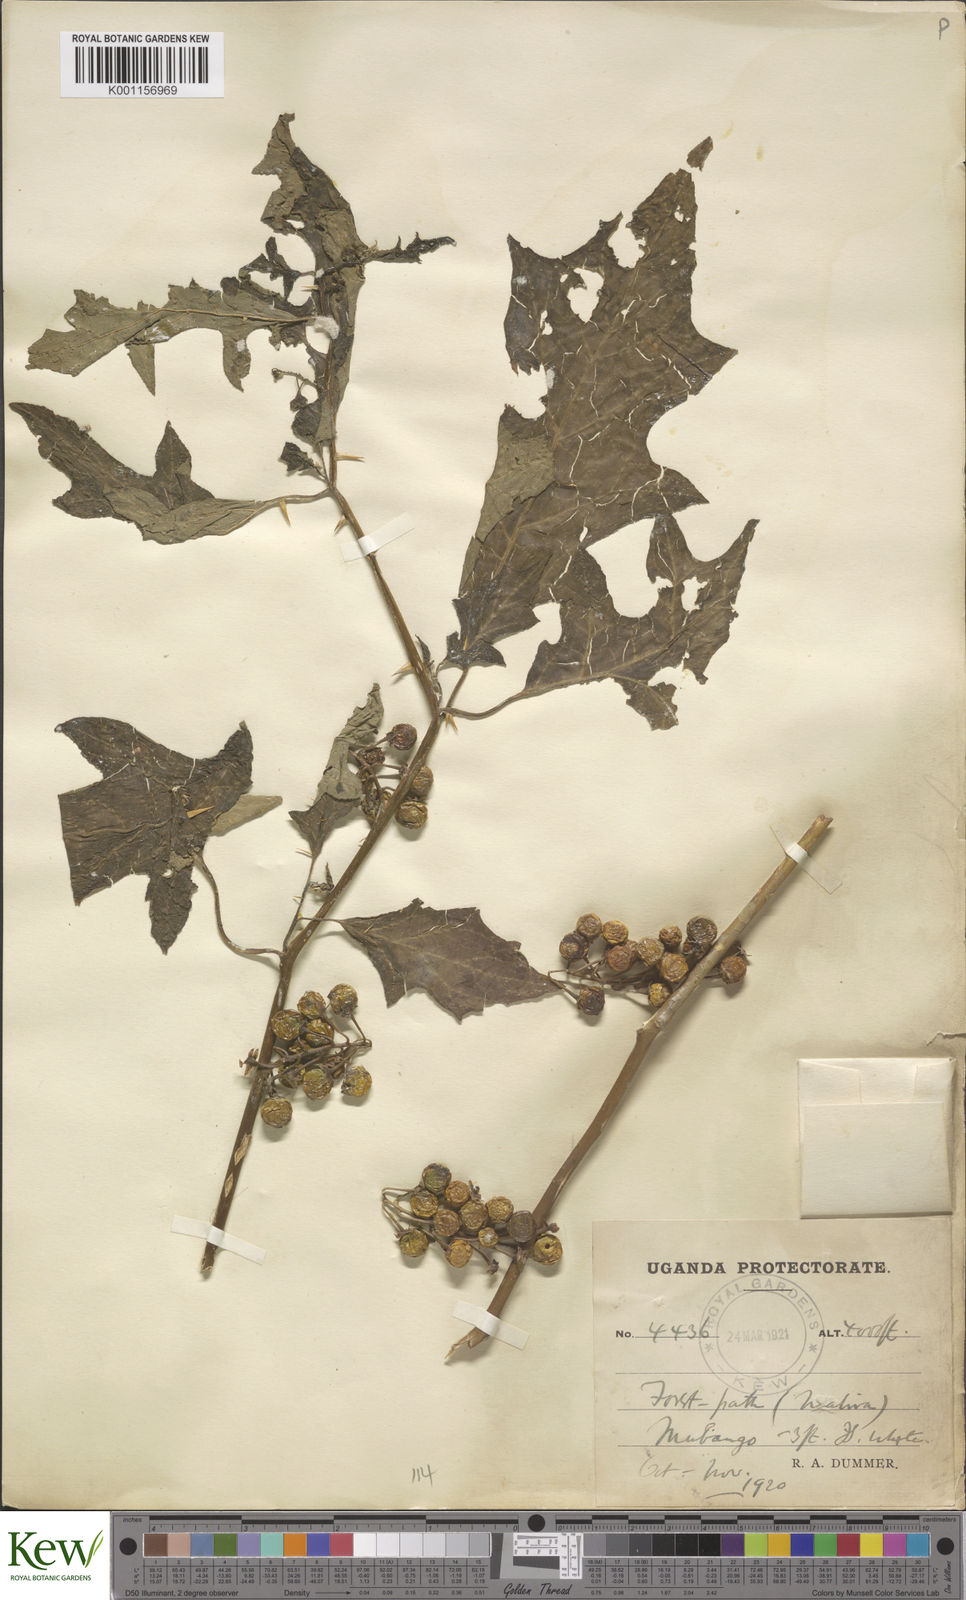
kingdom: Plantae
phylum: Tracheophyta
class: Magnoliopsida
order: Solanales
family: Solanaceae
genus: Solanum
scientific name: Solanum anguivi
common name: Forest bitterberry
